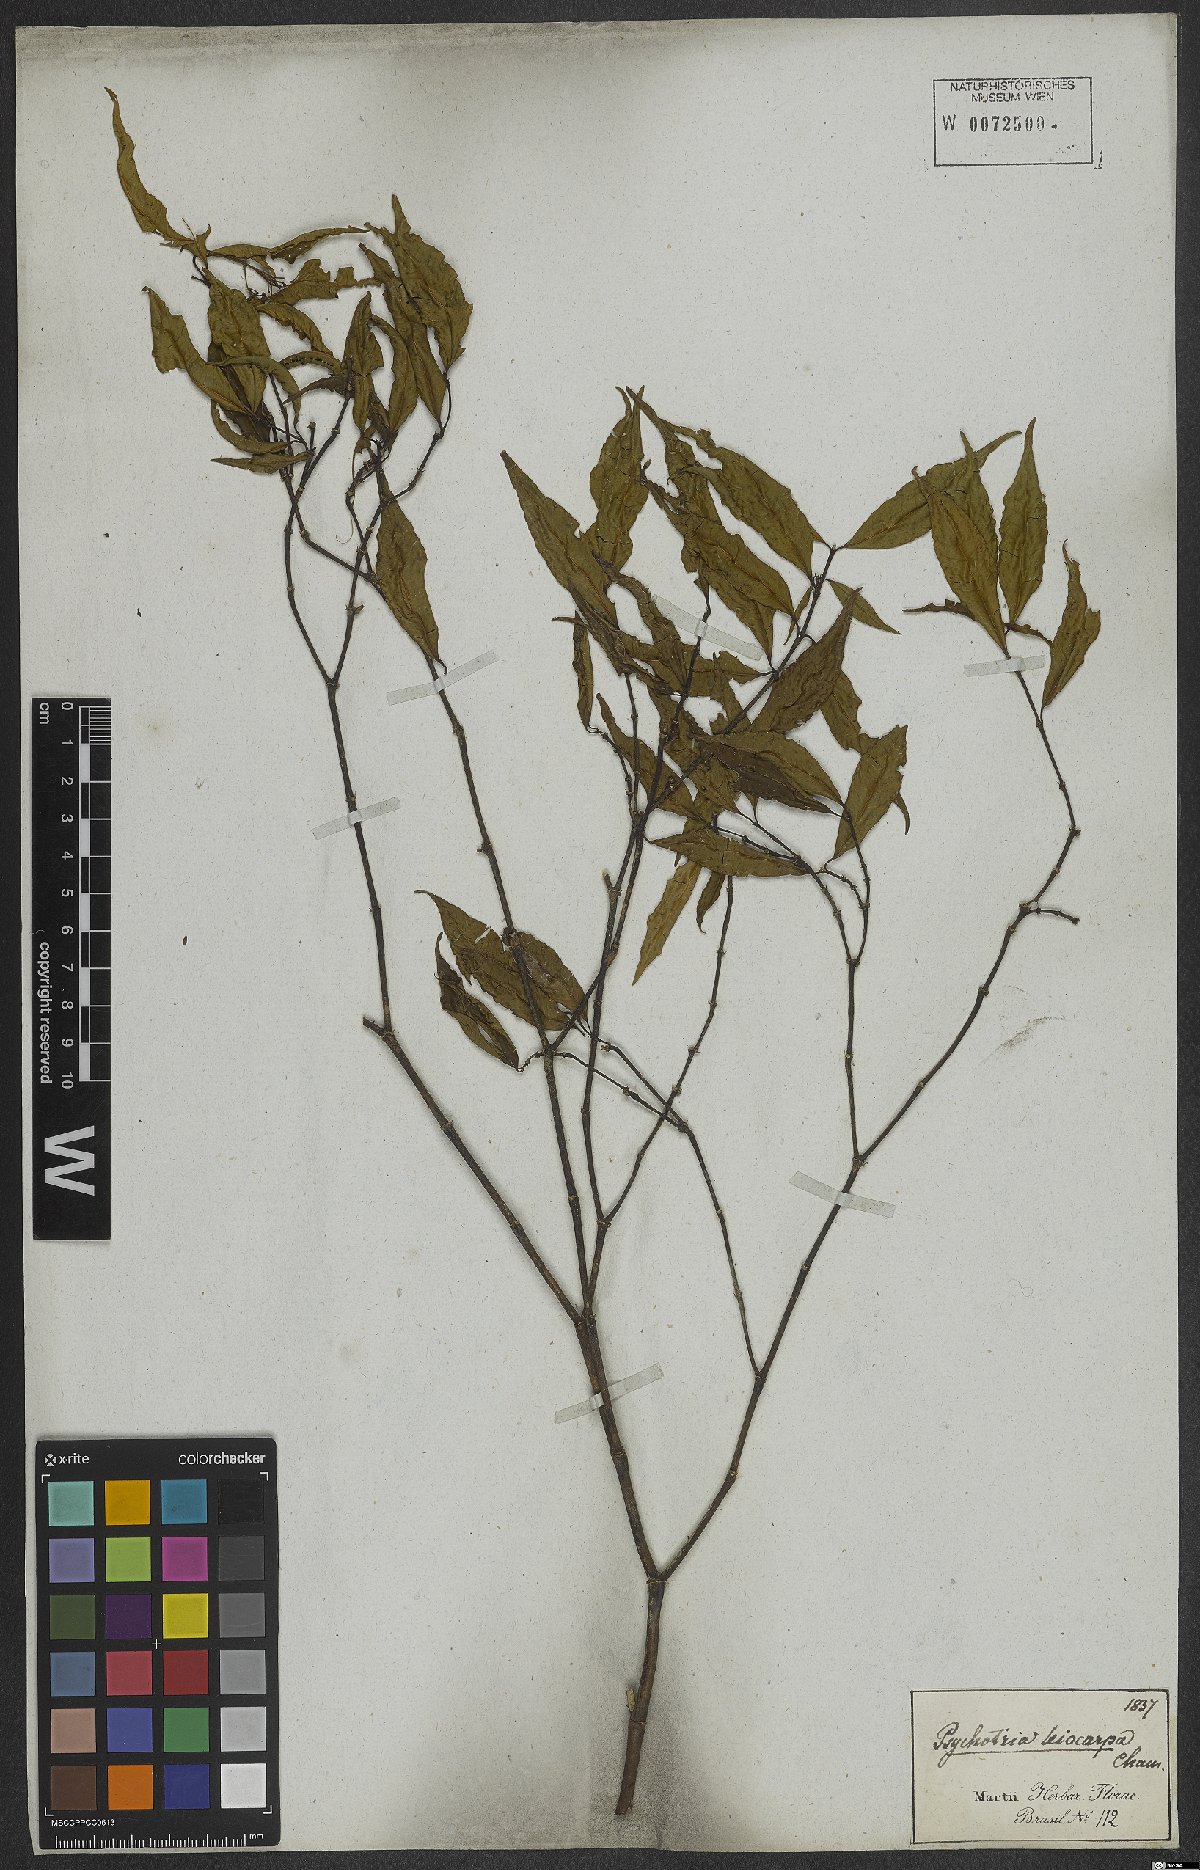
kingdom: Plantae
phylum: Tracheophyta
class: Magnoliopsida
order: Gentianales
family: Rubiaceae
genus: Psychotria
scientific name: Psychotria leiocarpa
